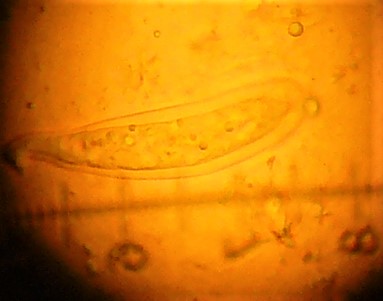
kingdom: Fungi
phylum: Ascomycota
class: Dothideomycetes
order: Pleosporales
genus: Rhopographus
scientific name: Rhopographus filicinus
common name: Bracken map
